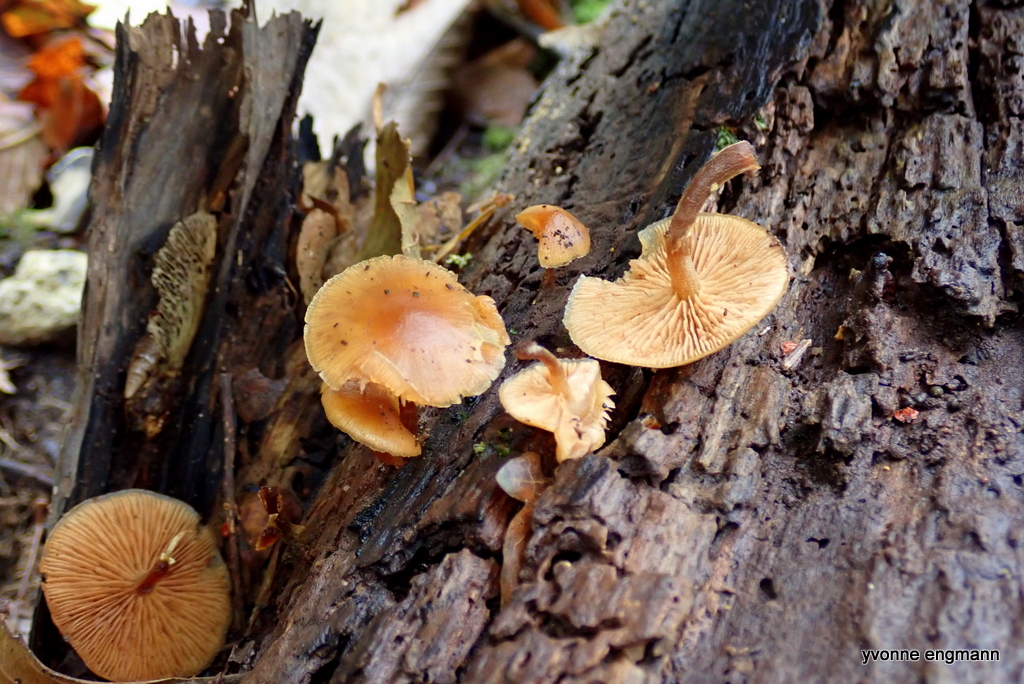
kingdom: Fungi
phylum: Basidiomycota
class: Agaricomycetes
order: Agaricales
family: Hymenogastraceae
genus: Galerina
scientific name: Galerina marginata
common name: randbæltet hjelmhat
